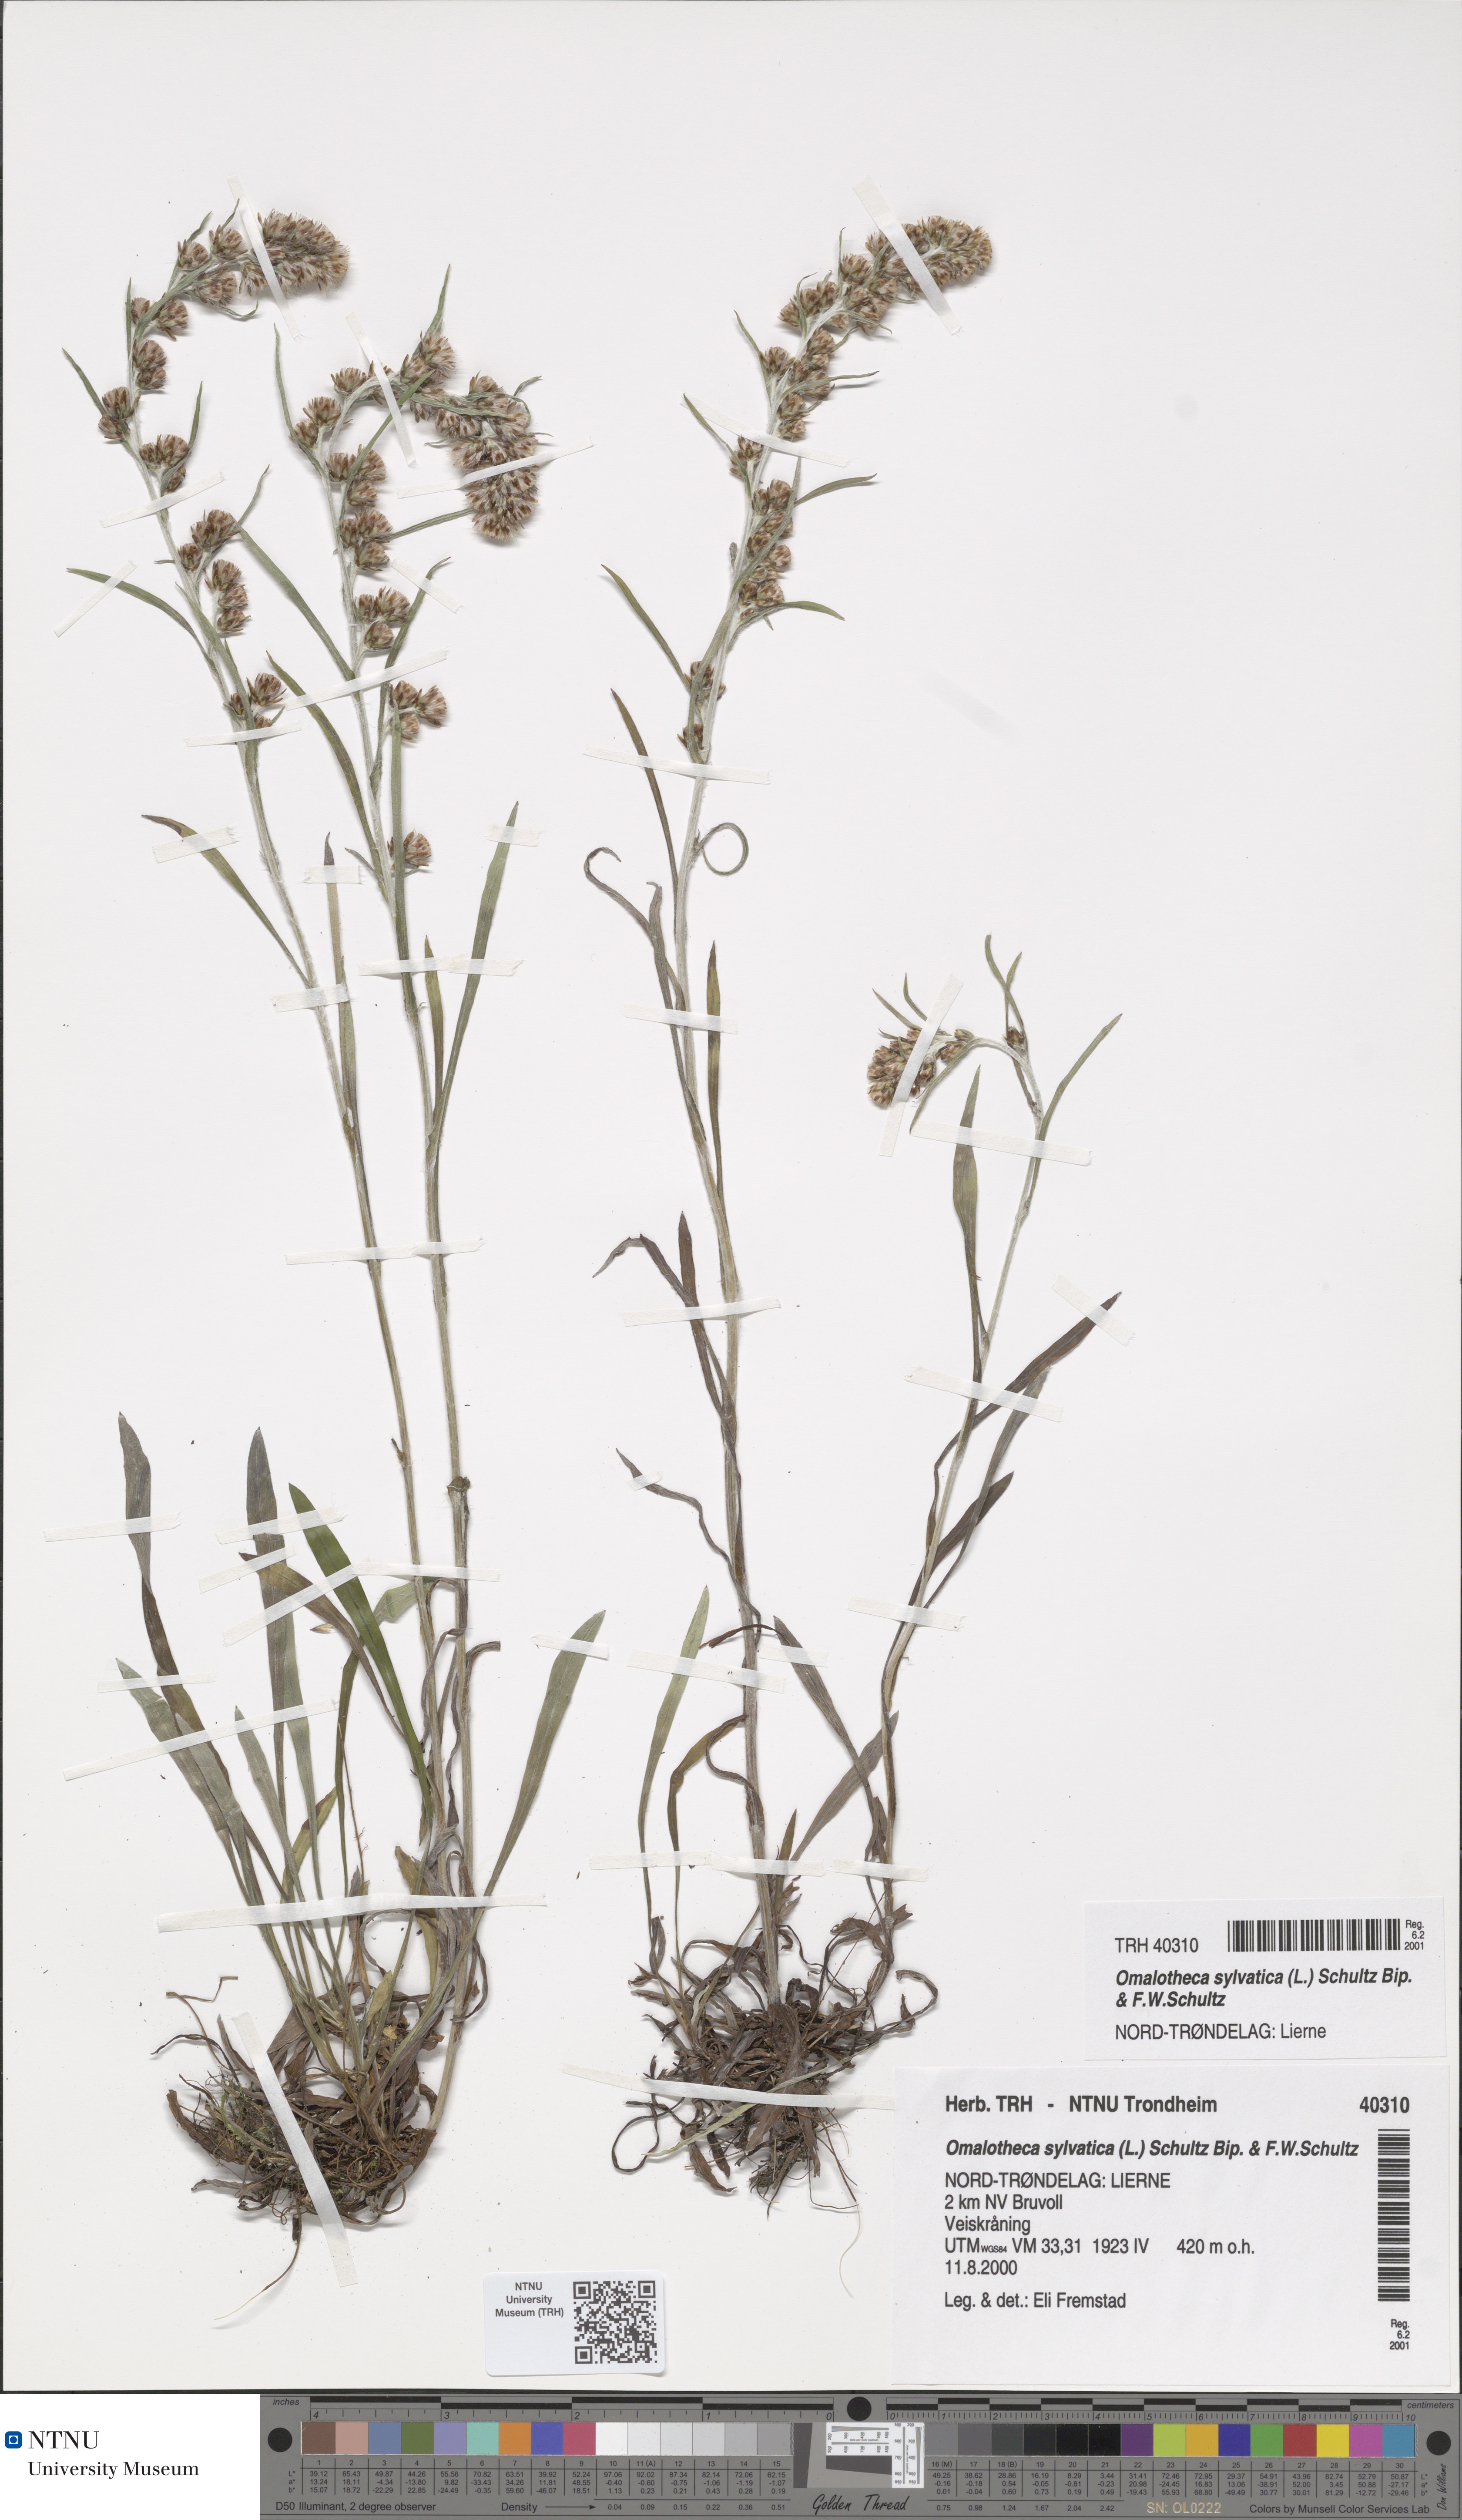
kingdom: Plantae
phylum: Tracheophyta
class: Magnoliopsida
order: Asterales
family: Asteraceae
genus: Omalotheca
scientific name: Omalotheca sylvatica
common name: Heath cudweed
